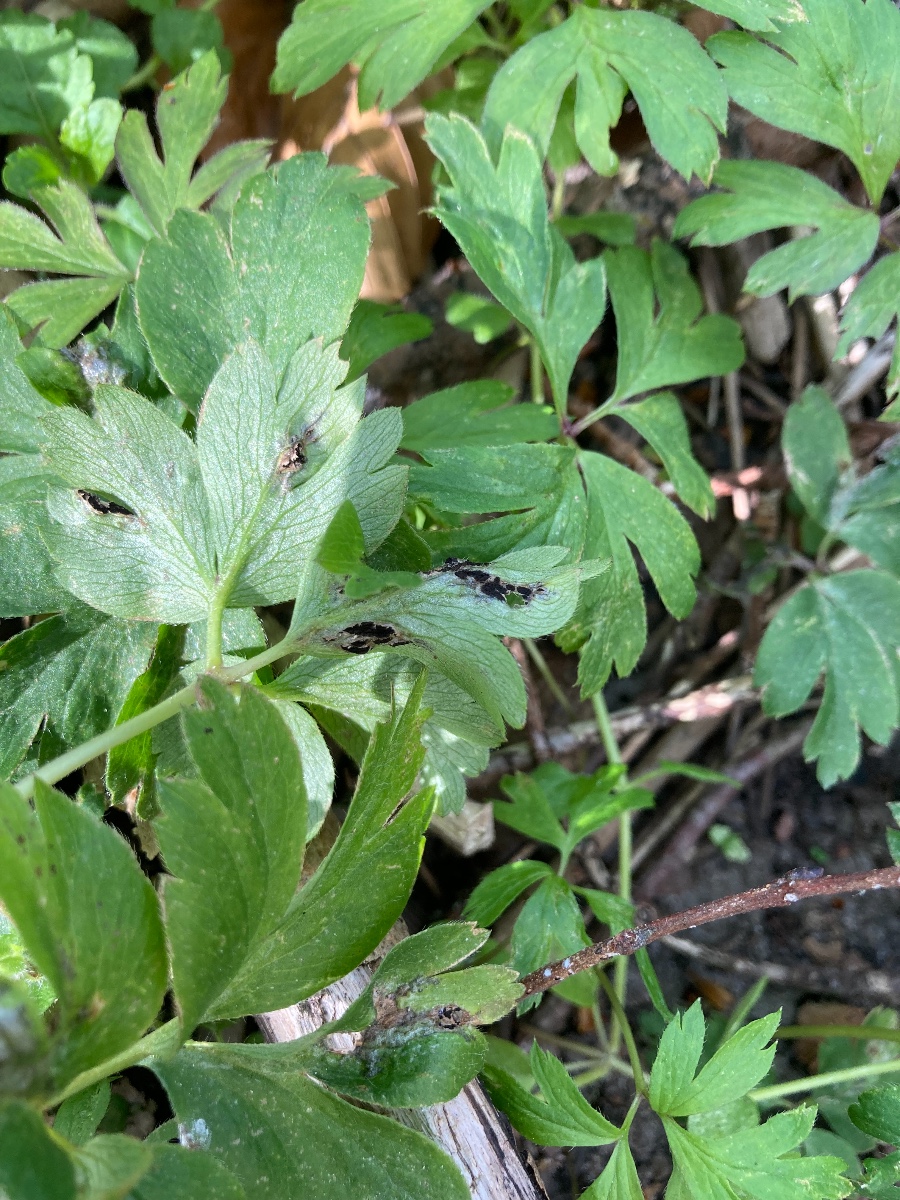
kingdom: Fungi
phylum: Basidiomycota
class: Ustilaginomycetes
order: Urocystidales
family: Urocystidaceae
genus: Urocystis
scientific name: Urocystis anemones
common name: anemone-brand
